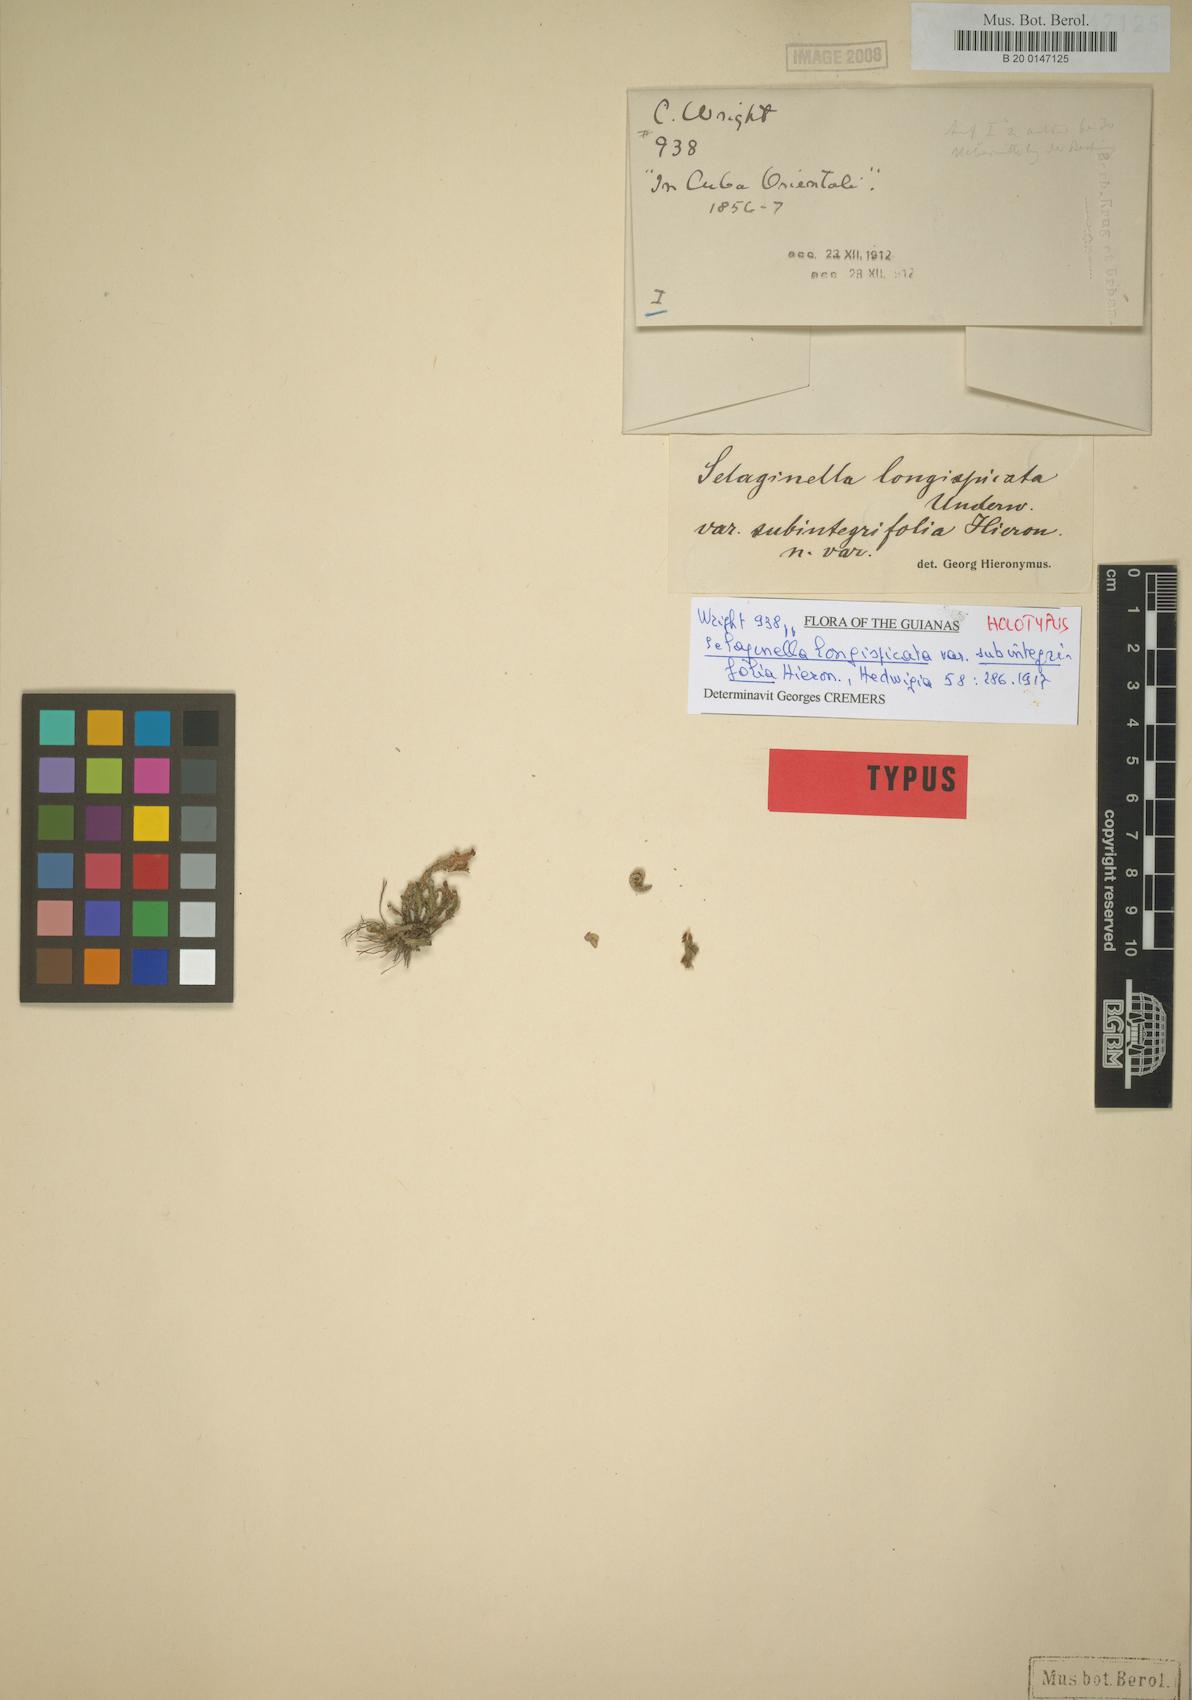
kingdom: Plantae
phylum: Tracheophyta
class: Lycopodiopsida
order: Selaginellales
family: Selaginellaceae
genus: Selaginella
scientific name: Selaginella convoluta
